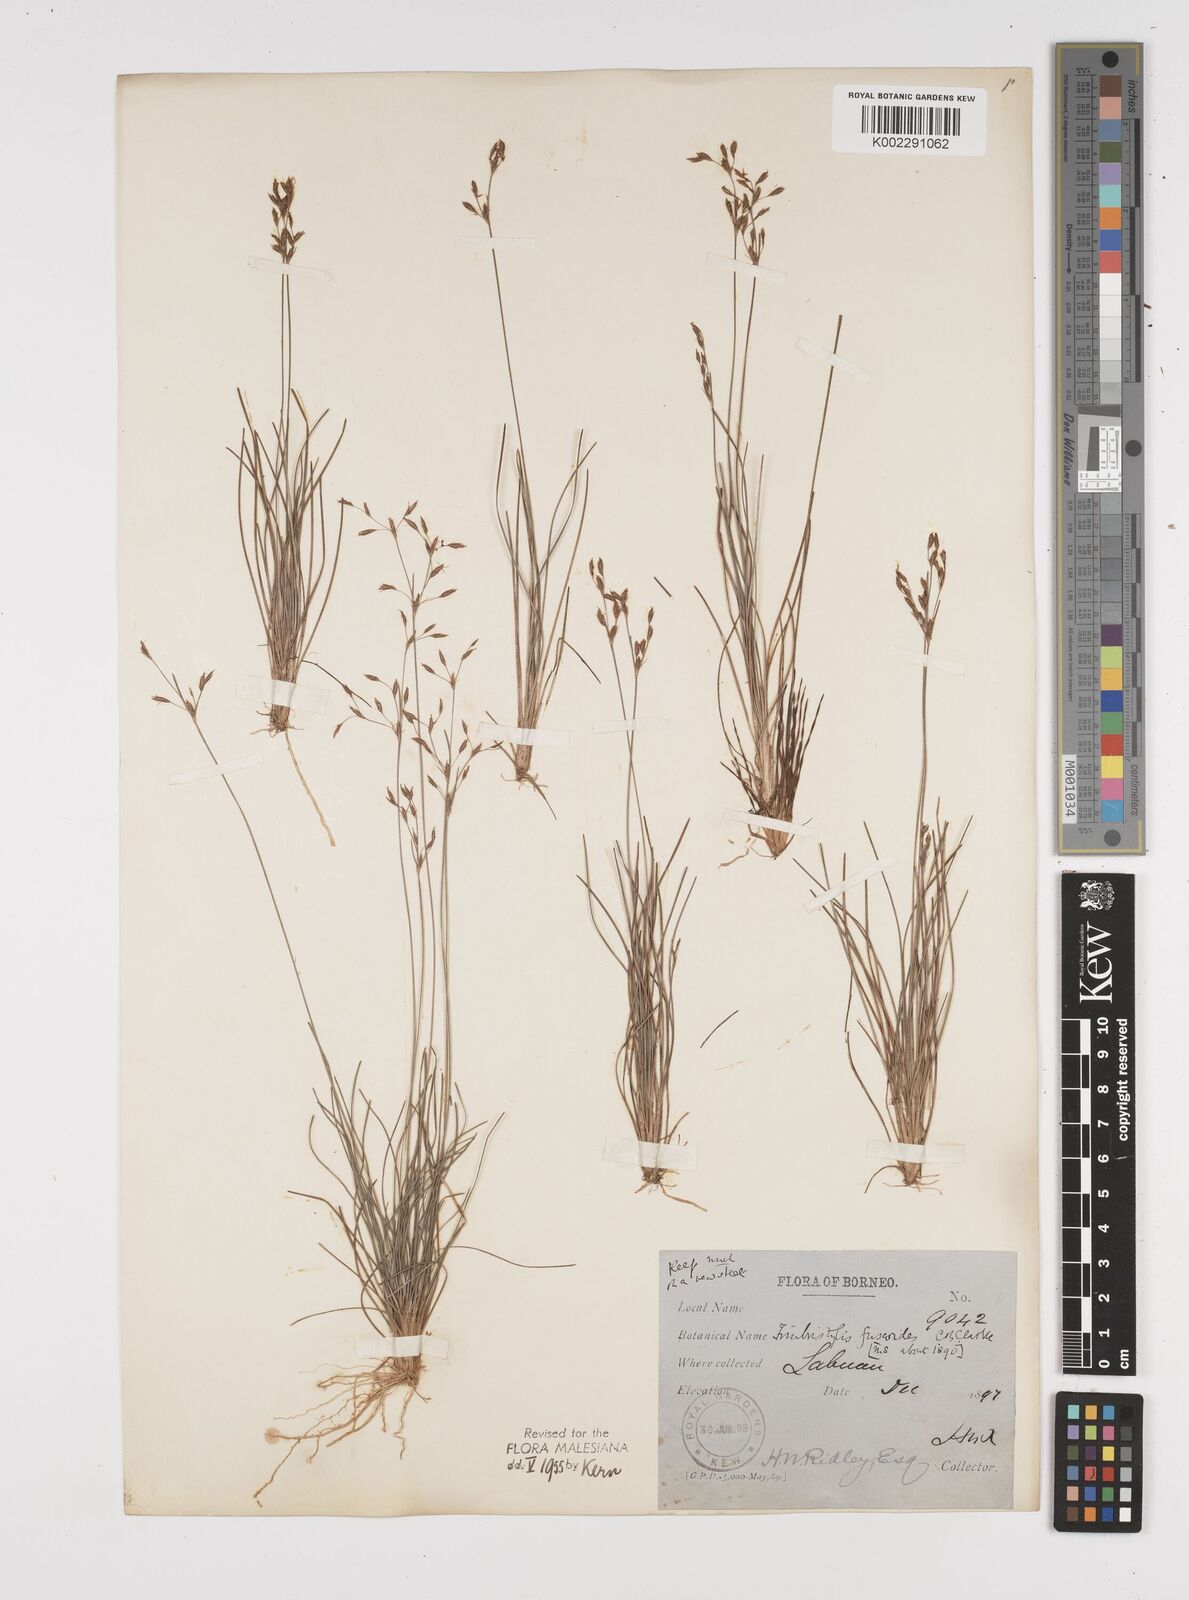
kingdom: Plantae
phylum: Tracheophyta
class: Liliopsida
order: Poales
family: Cyperaceae
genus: Fimbristylis
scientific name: Fimbristylis fuscoides
